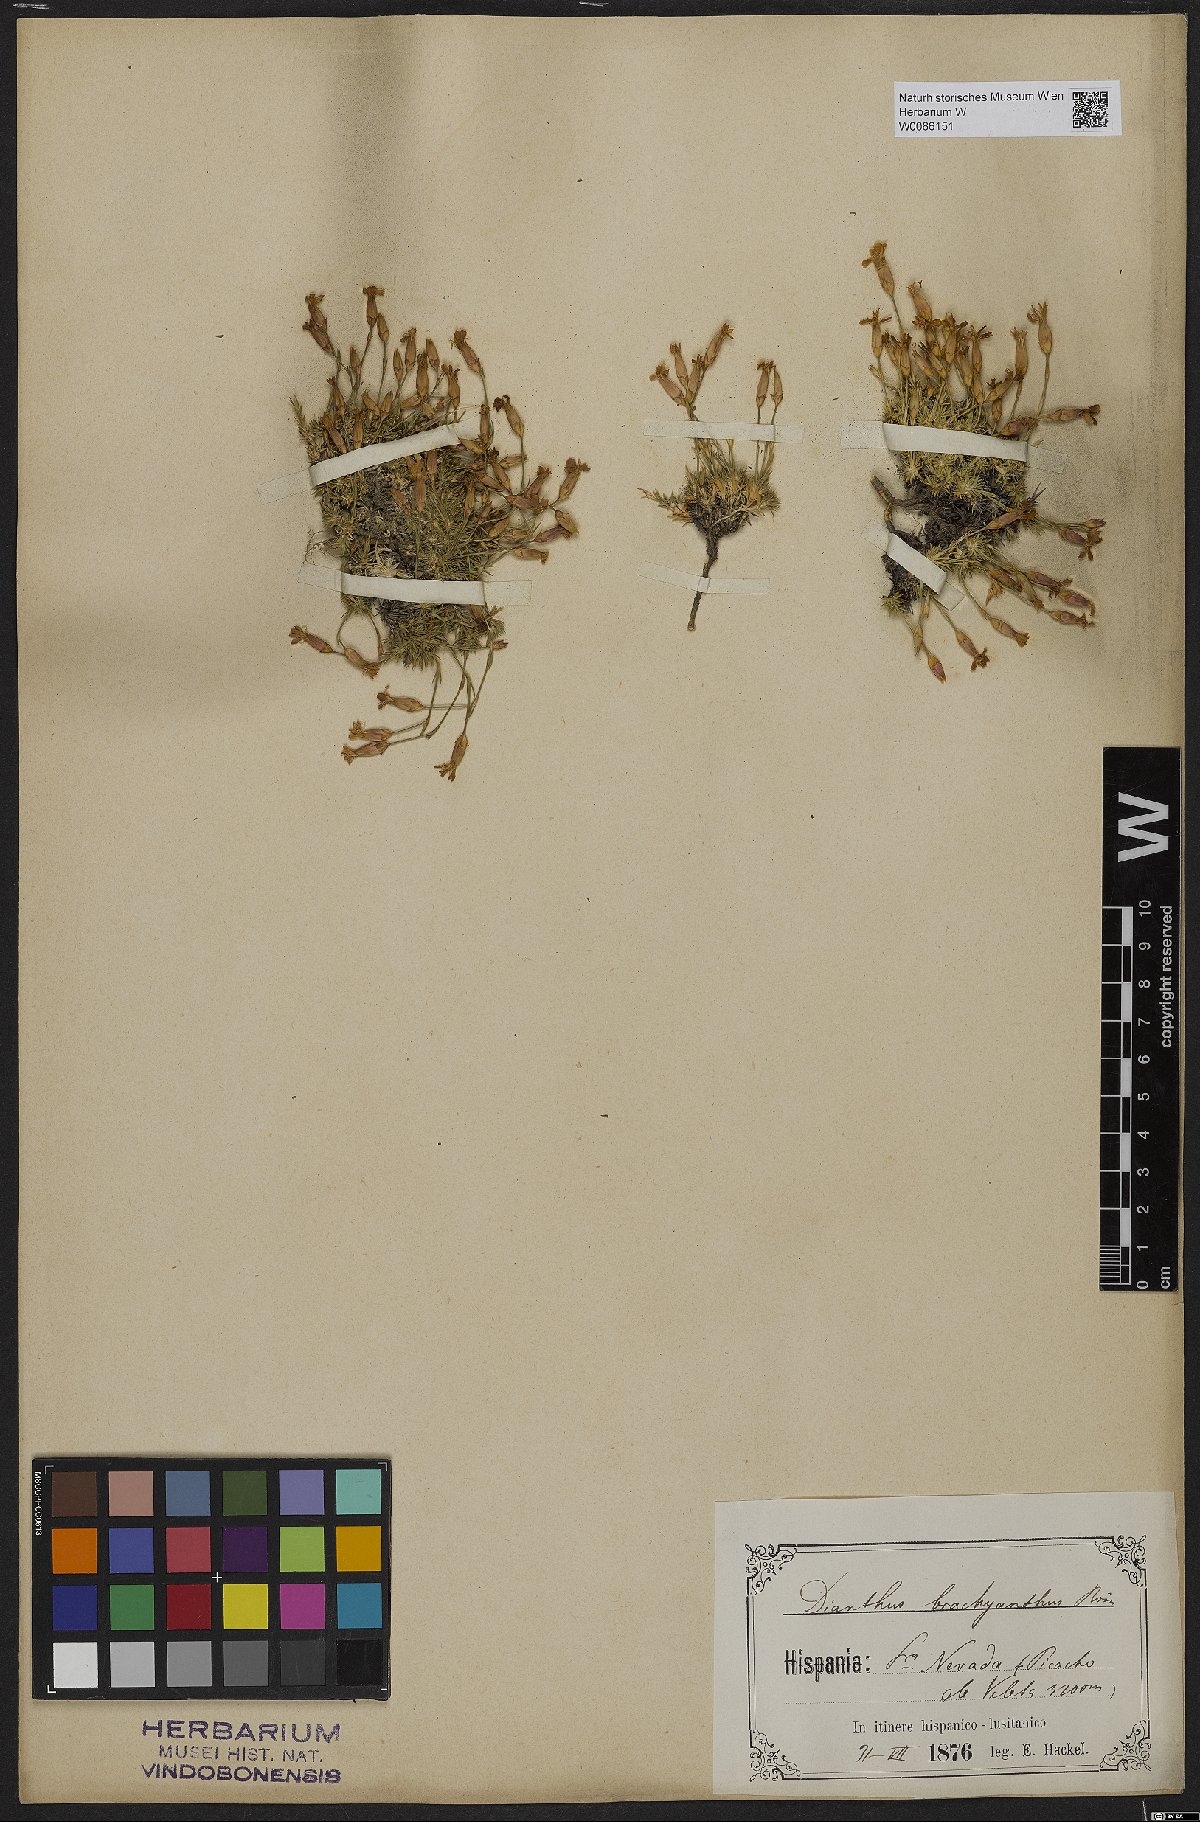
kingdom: Plantae
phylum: Tracheophyta
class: Magnoliopsida
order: Caryophyllales
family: Caryophyllaceae
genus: Dianthus
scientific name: Dianthus pungens
